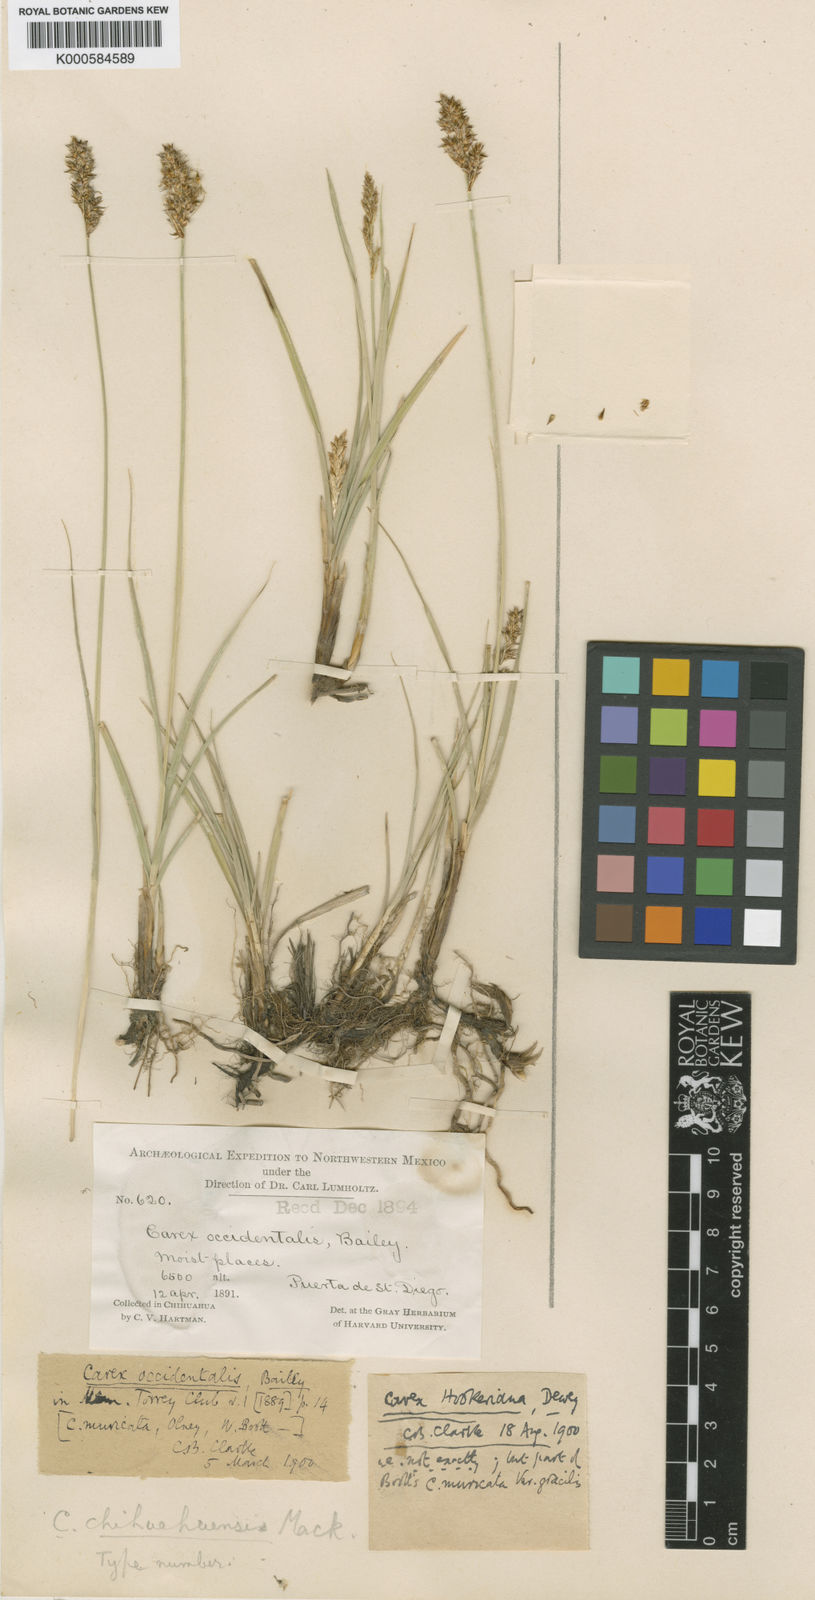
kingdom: Plantae
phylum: Tracheophyta
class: Liliopsida
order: Poales
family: Cyperaceae
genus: Carex
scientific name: Carex chihuahuensis
